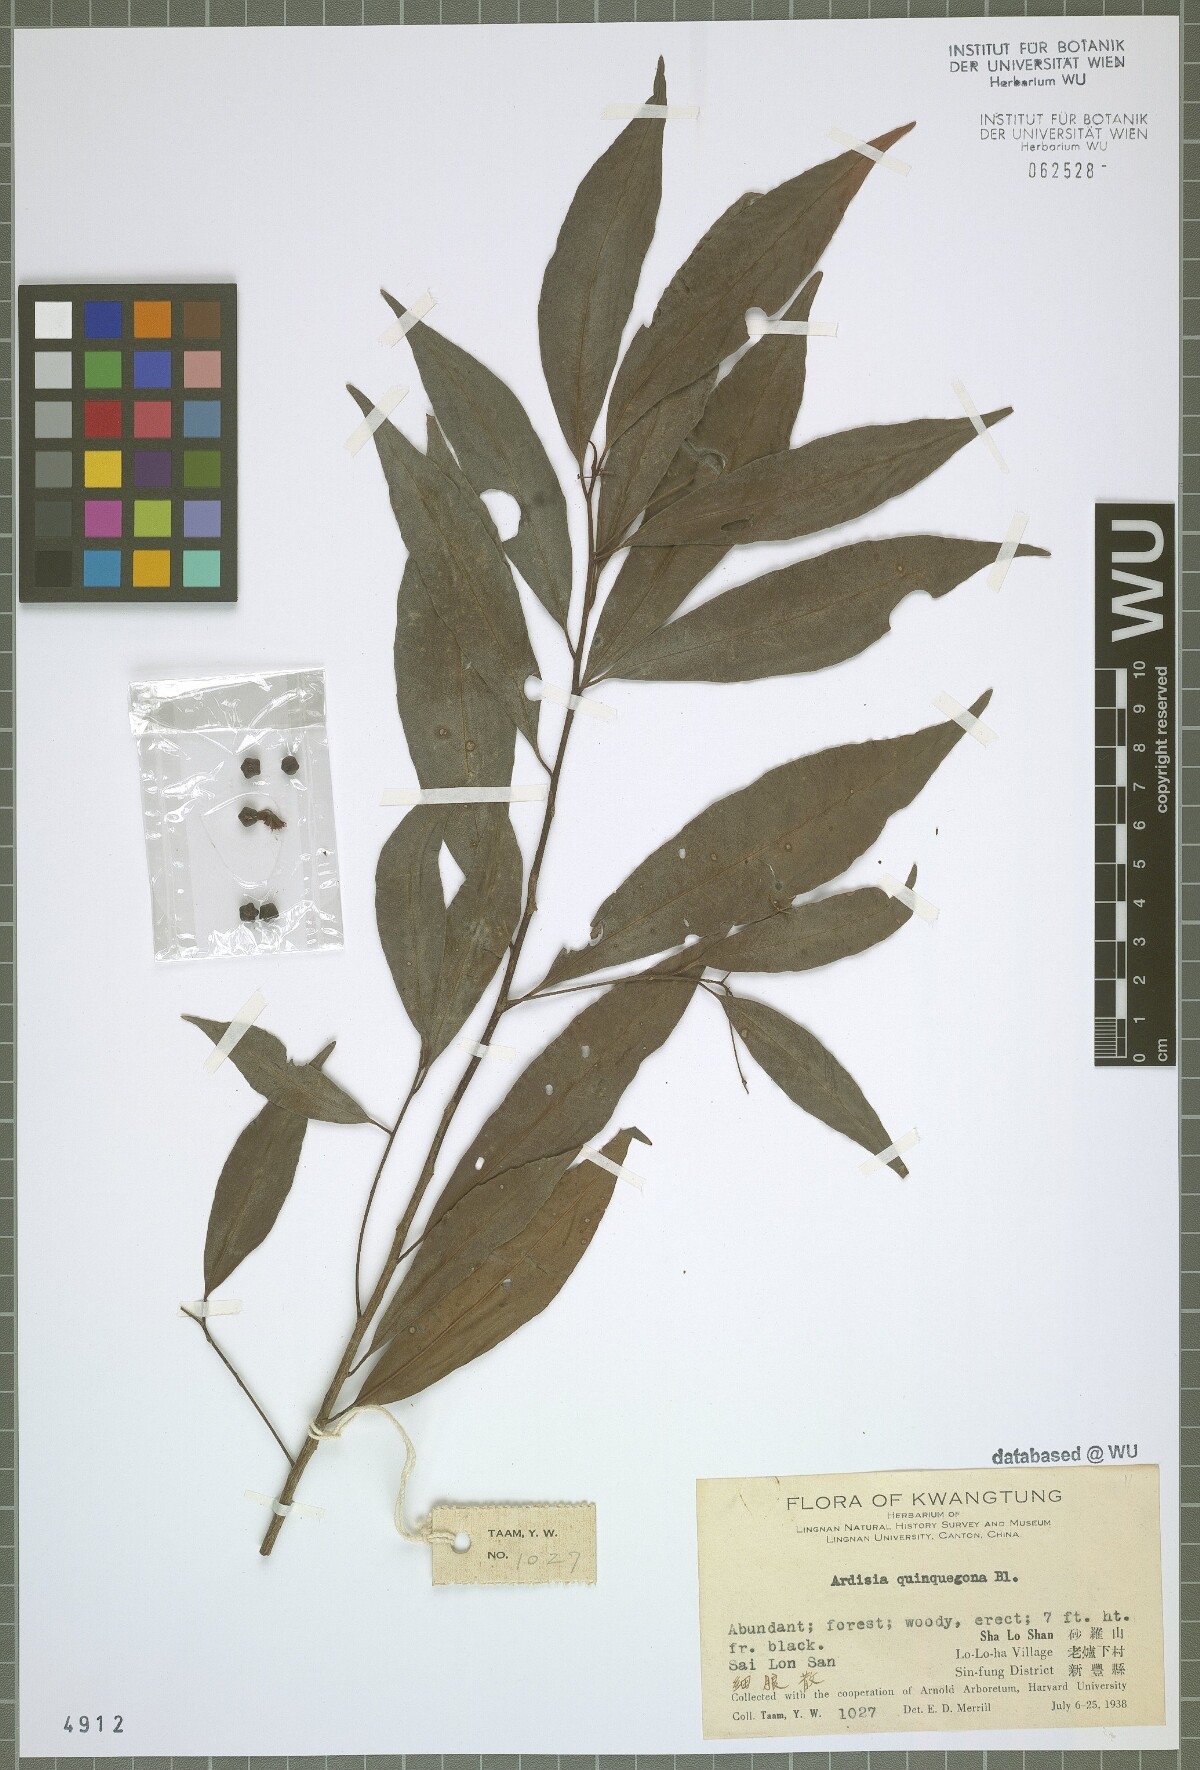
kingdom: Plantae
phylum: Tracheophyta
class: Magnoliopsida
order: Ericales
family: Primulaceae
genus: Ardisia
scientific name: Ardisia quinquegona
